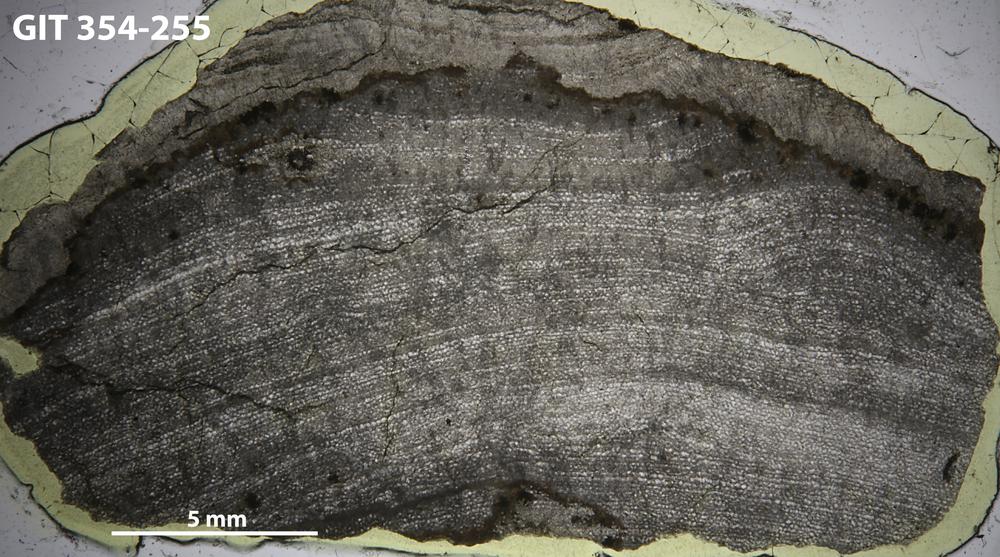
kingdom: Animalia
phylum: Porifera
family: Ecclimadictyidae
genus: Ecclimadictyon
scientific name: Ecclimadictyon Clathrodictyon microvesiculosum
